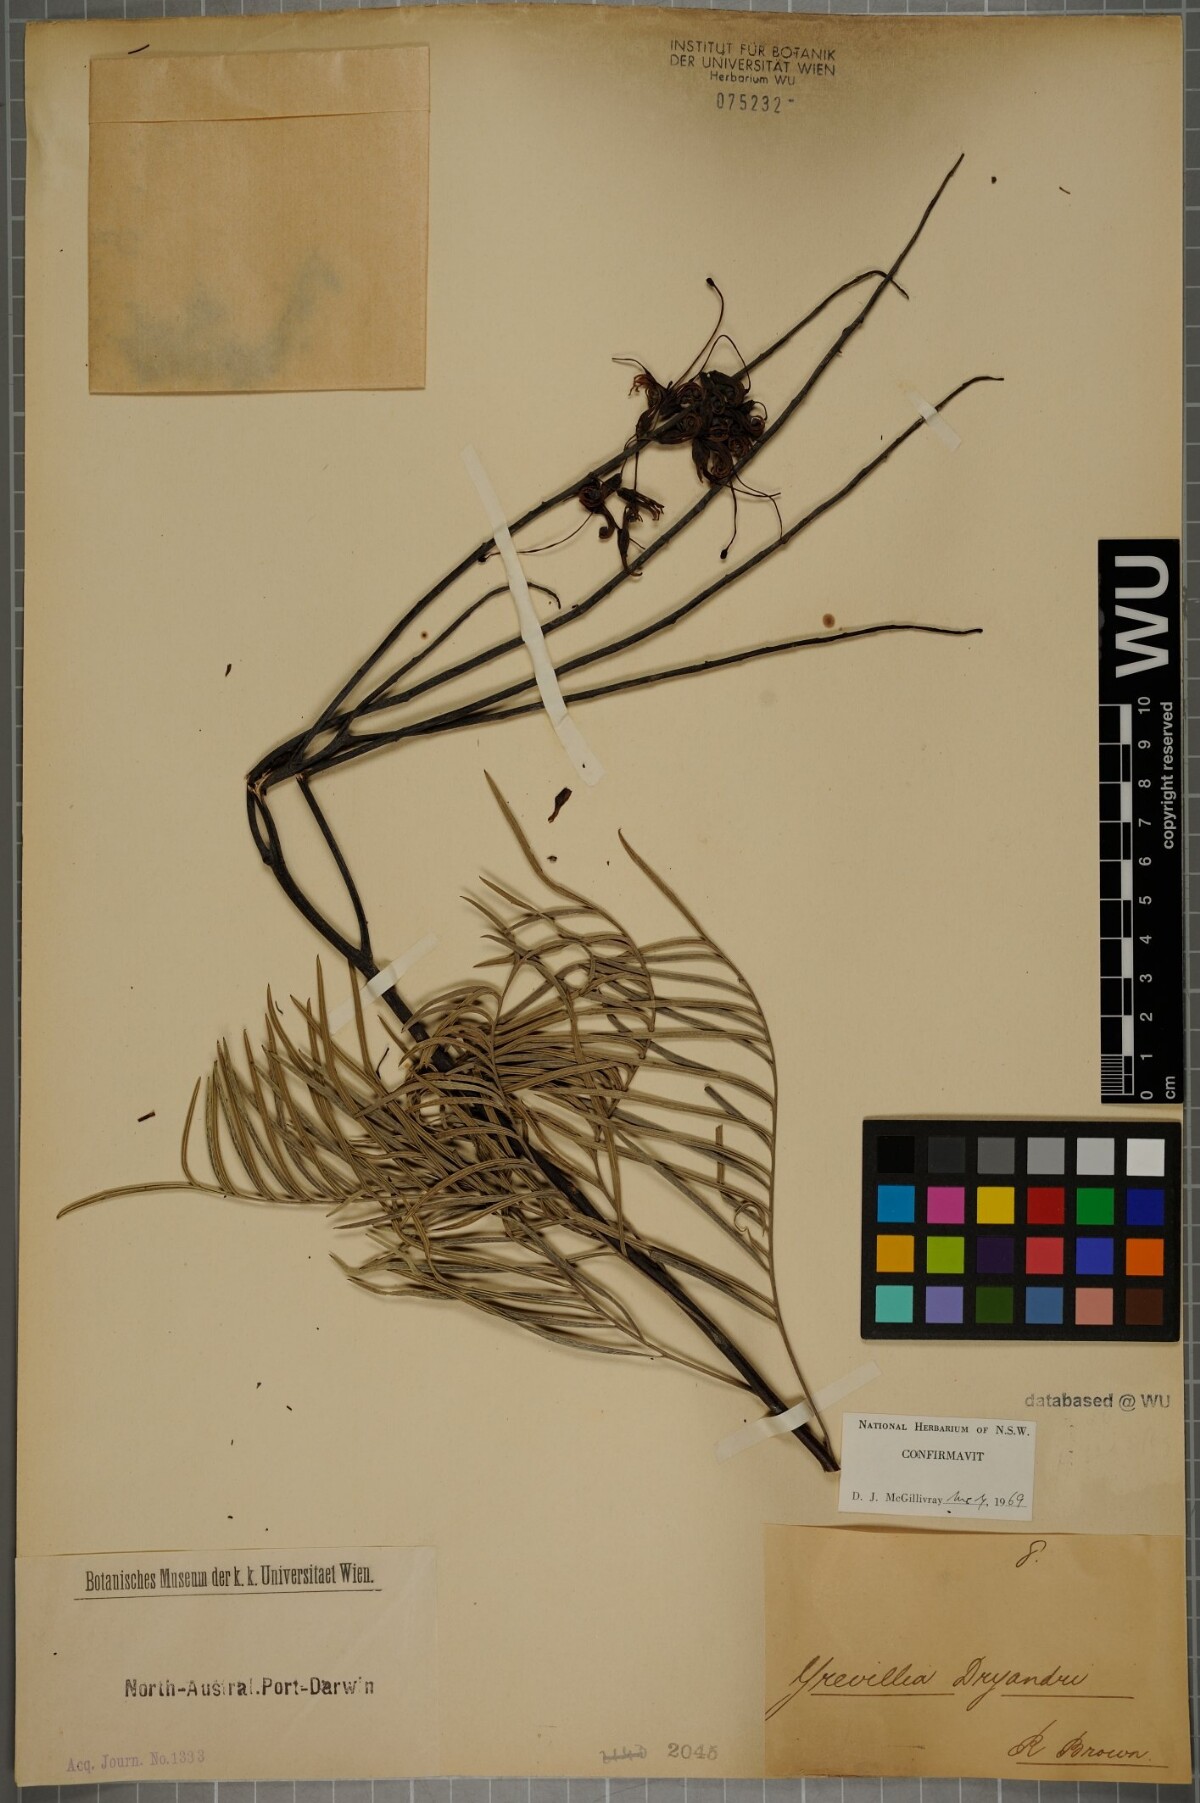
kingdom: Plantae
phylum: Tracheophyta
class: Magnoliopsida
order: Proteales
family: Proteaceae
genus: Grevillea
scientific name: Grevillea dryandri
